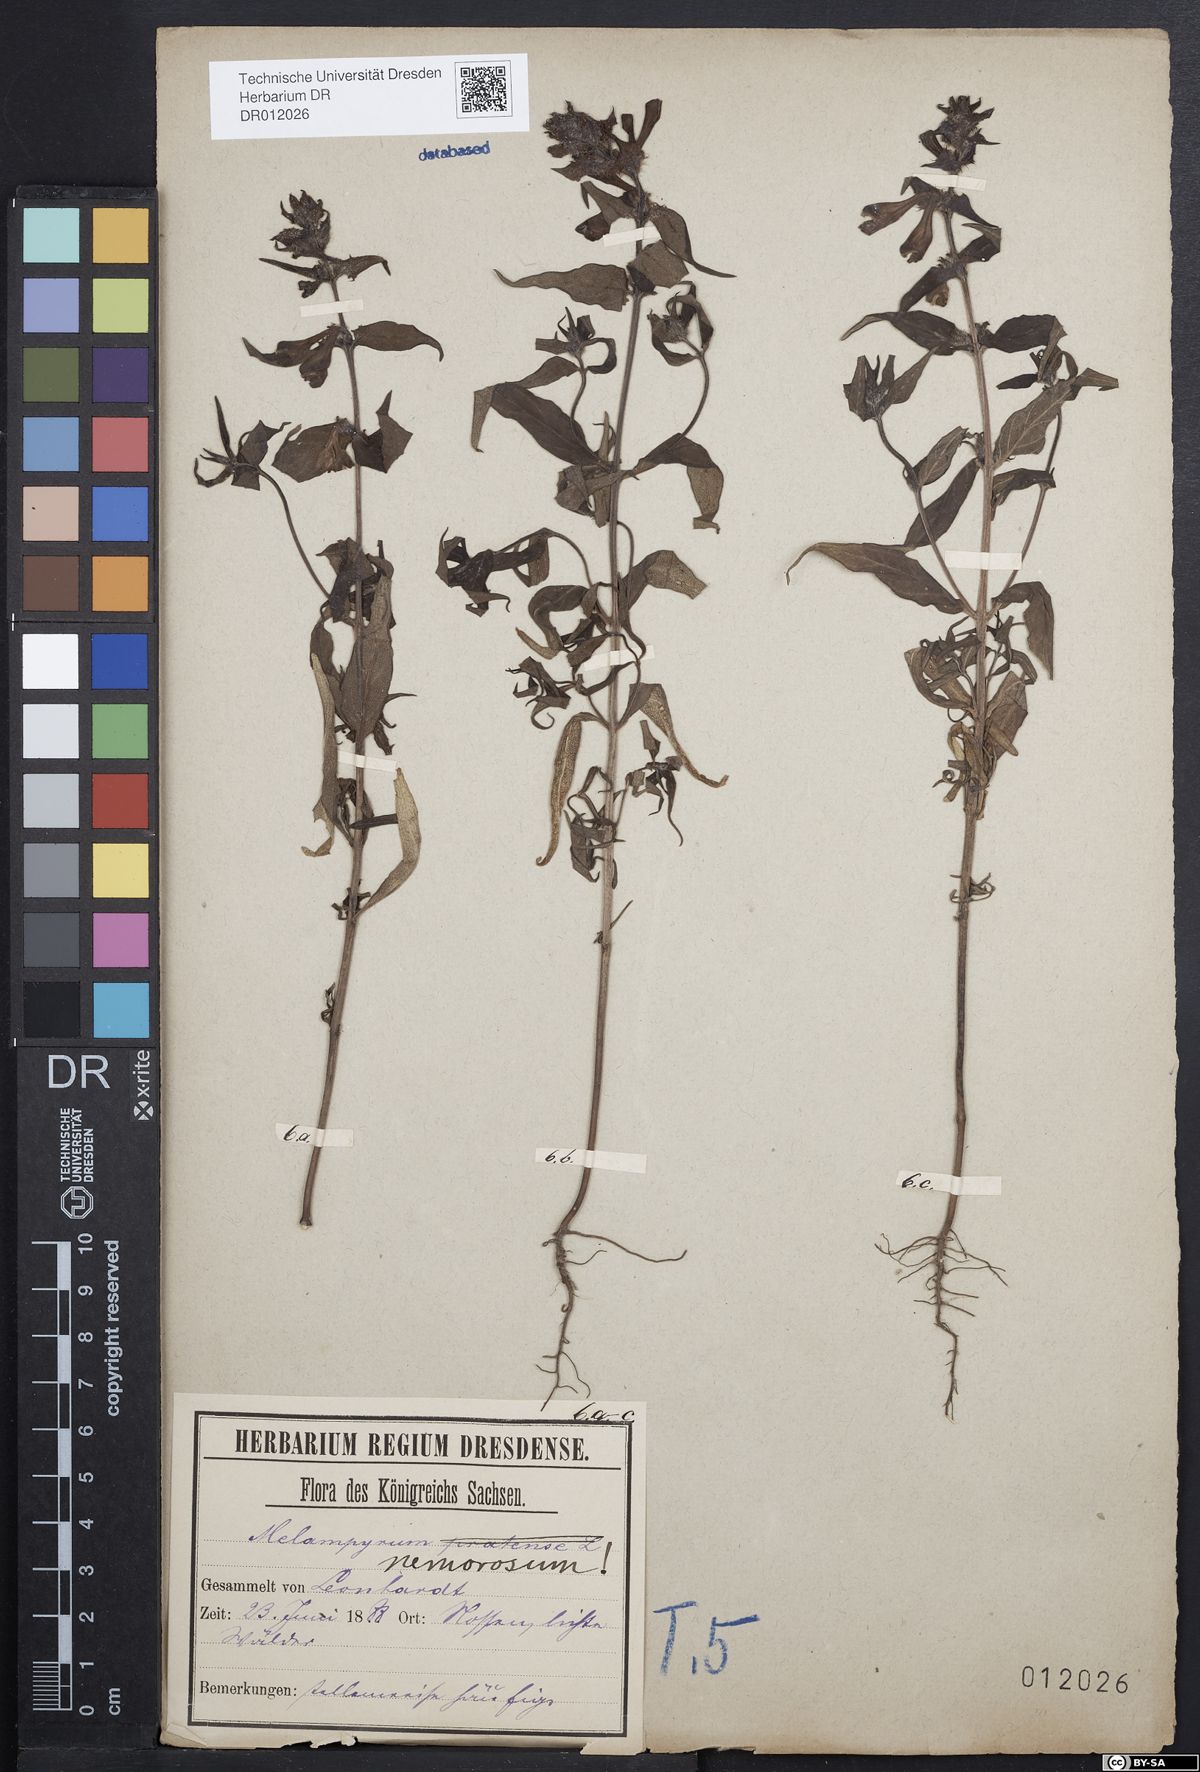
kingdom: Plantae
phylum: Tracheophyta
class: Magnoliopsida
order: Lamiales
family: Orobanchaceae
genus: Melampyrum
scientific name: Melampyrum nemorosum
